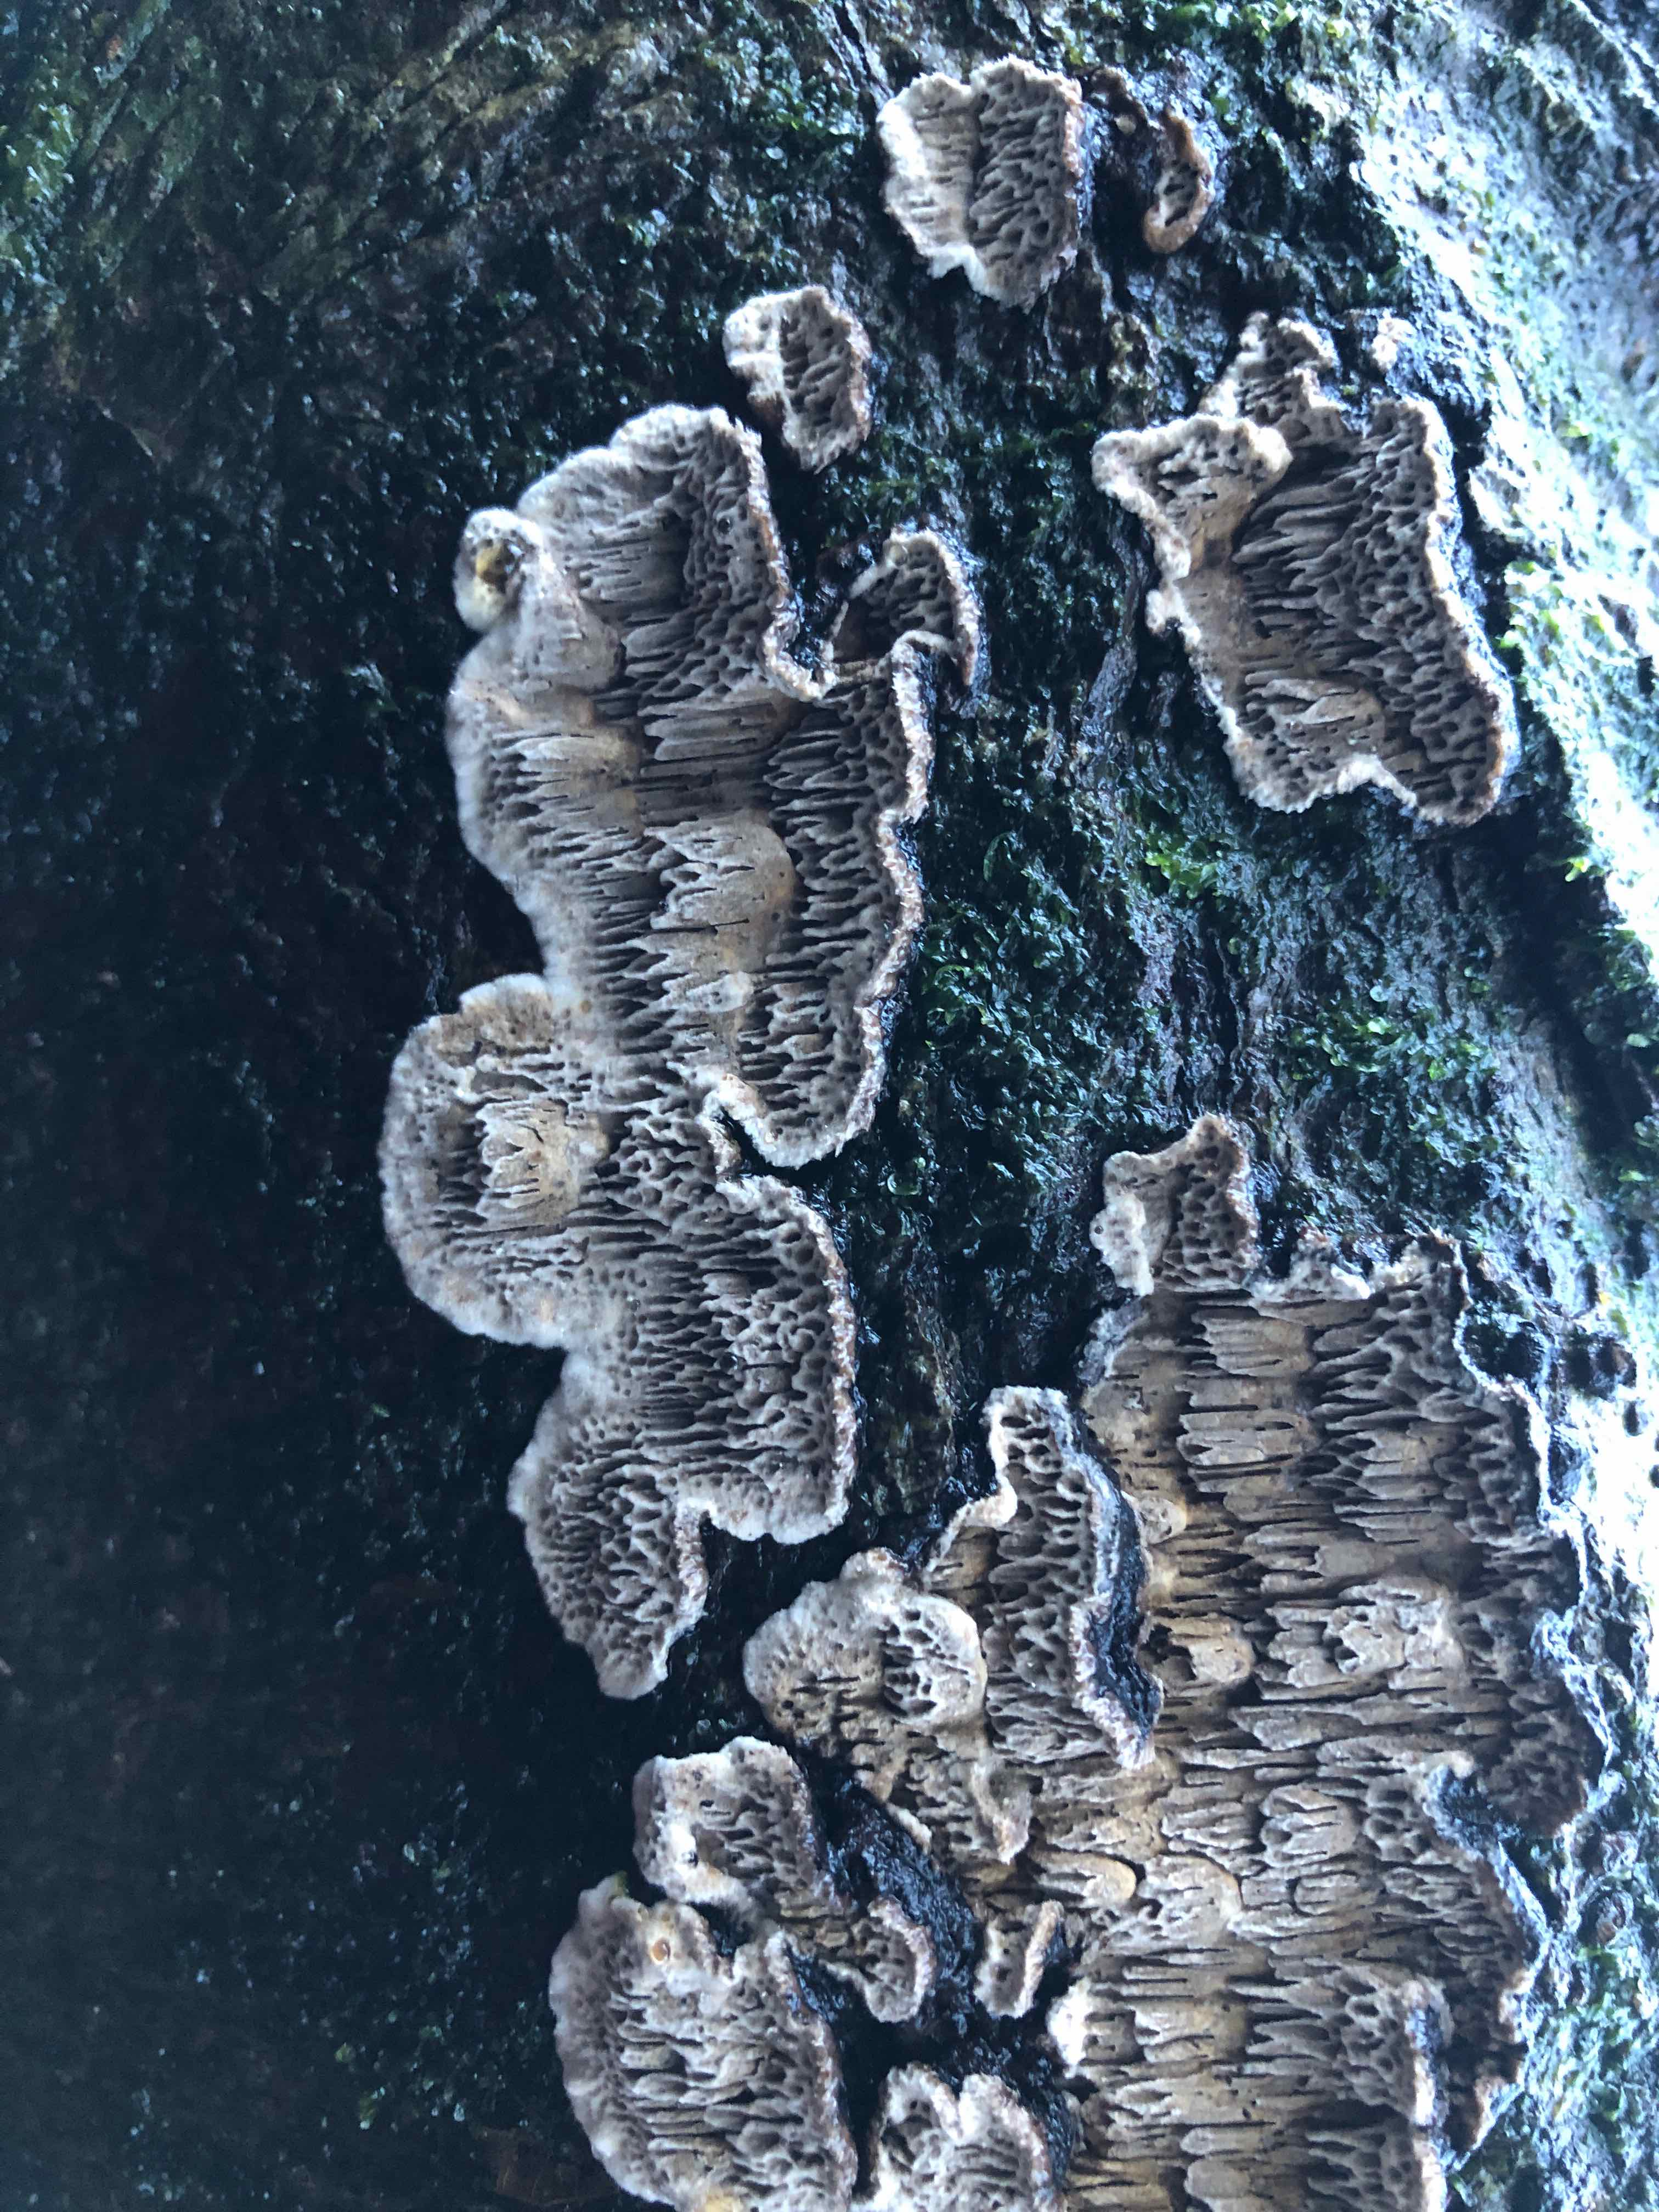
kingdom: Fungi
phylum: Basidiomycota
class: Agaricomycetes
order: Polyporales
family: Polyporaceae
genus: Podofomes
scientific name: Podofomes mollis
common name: blød begporesvamp
